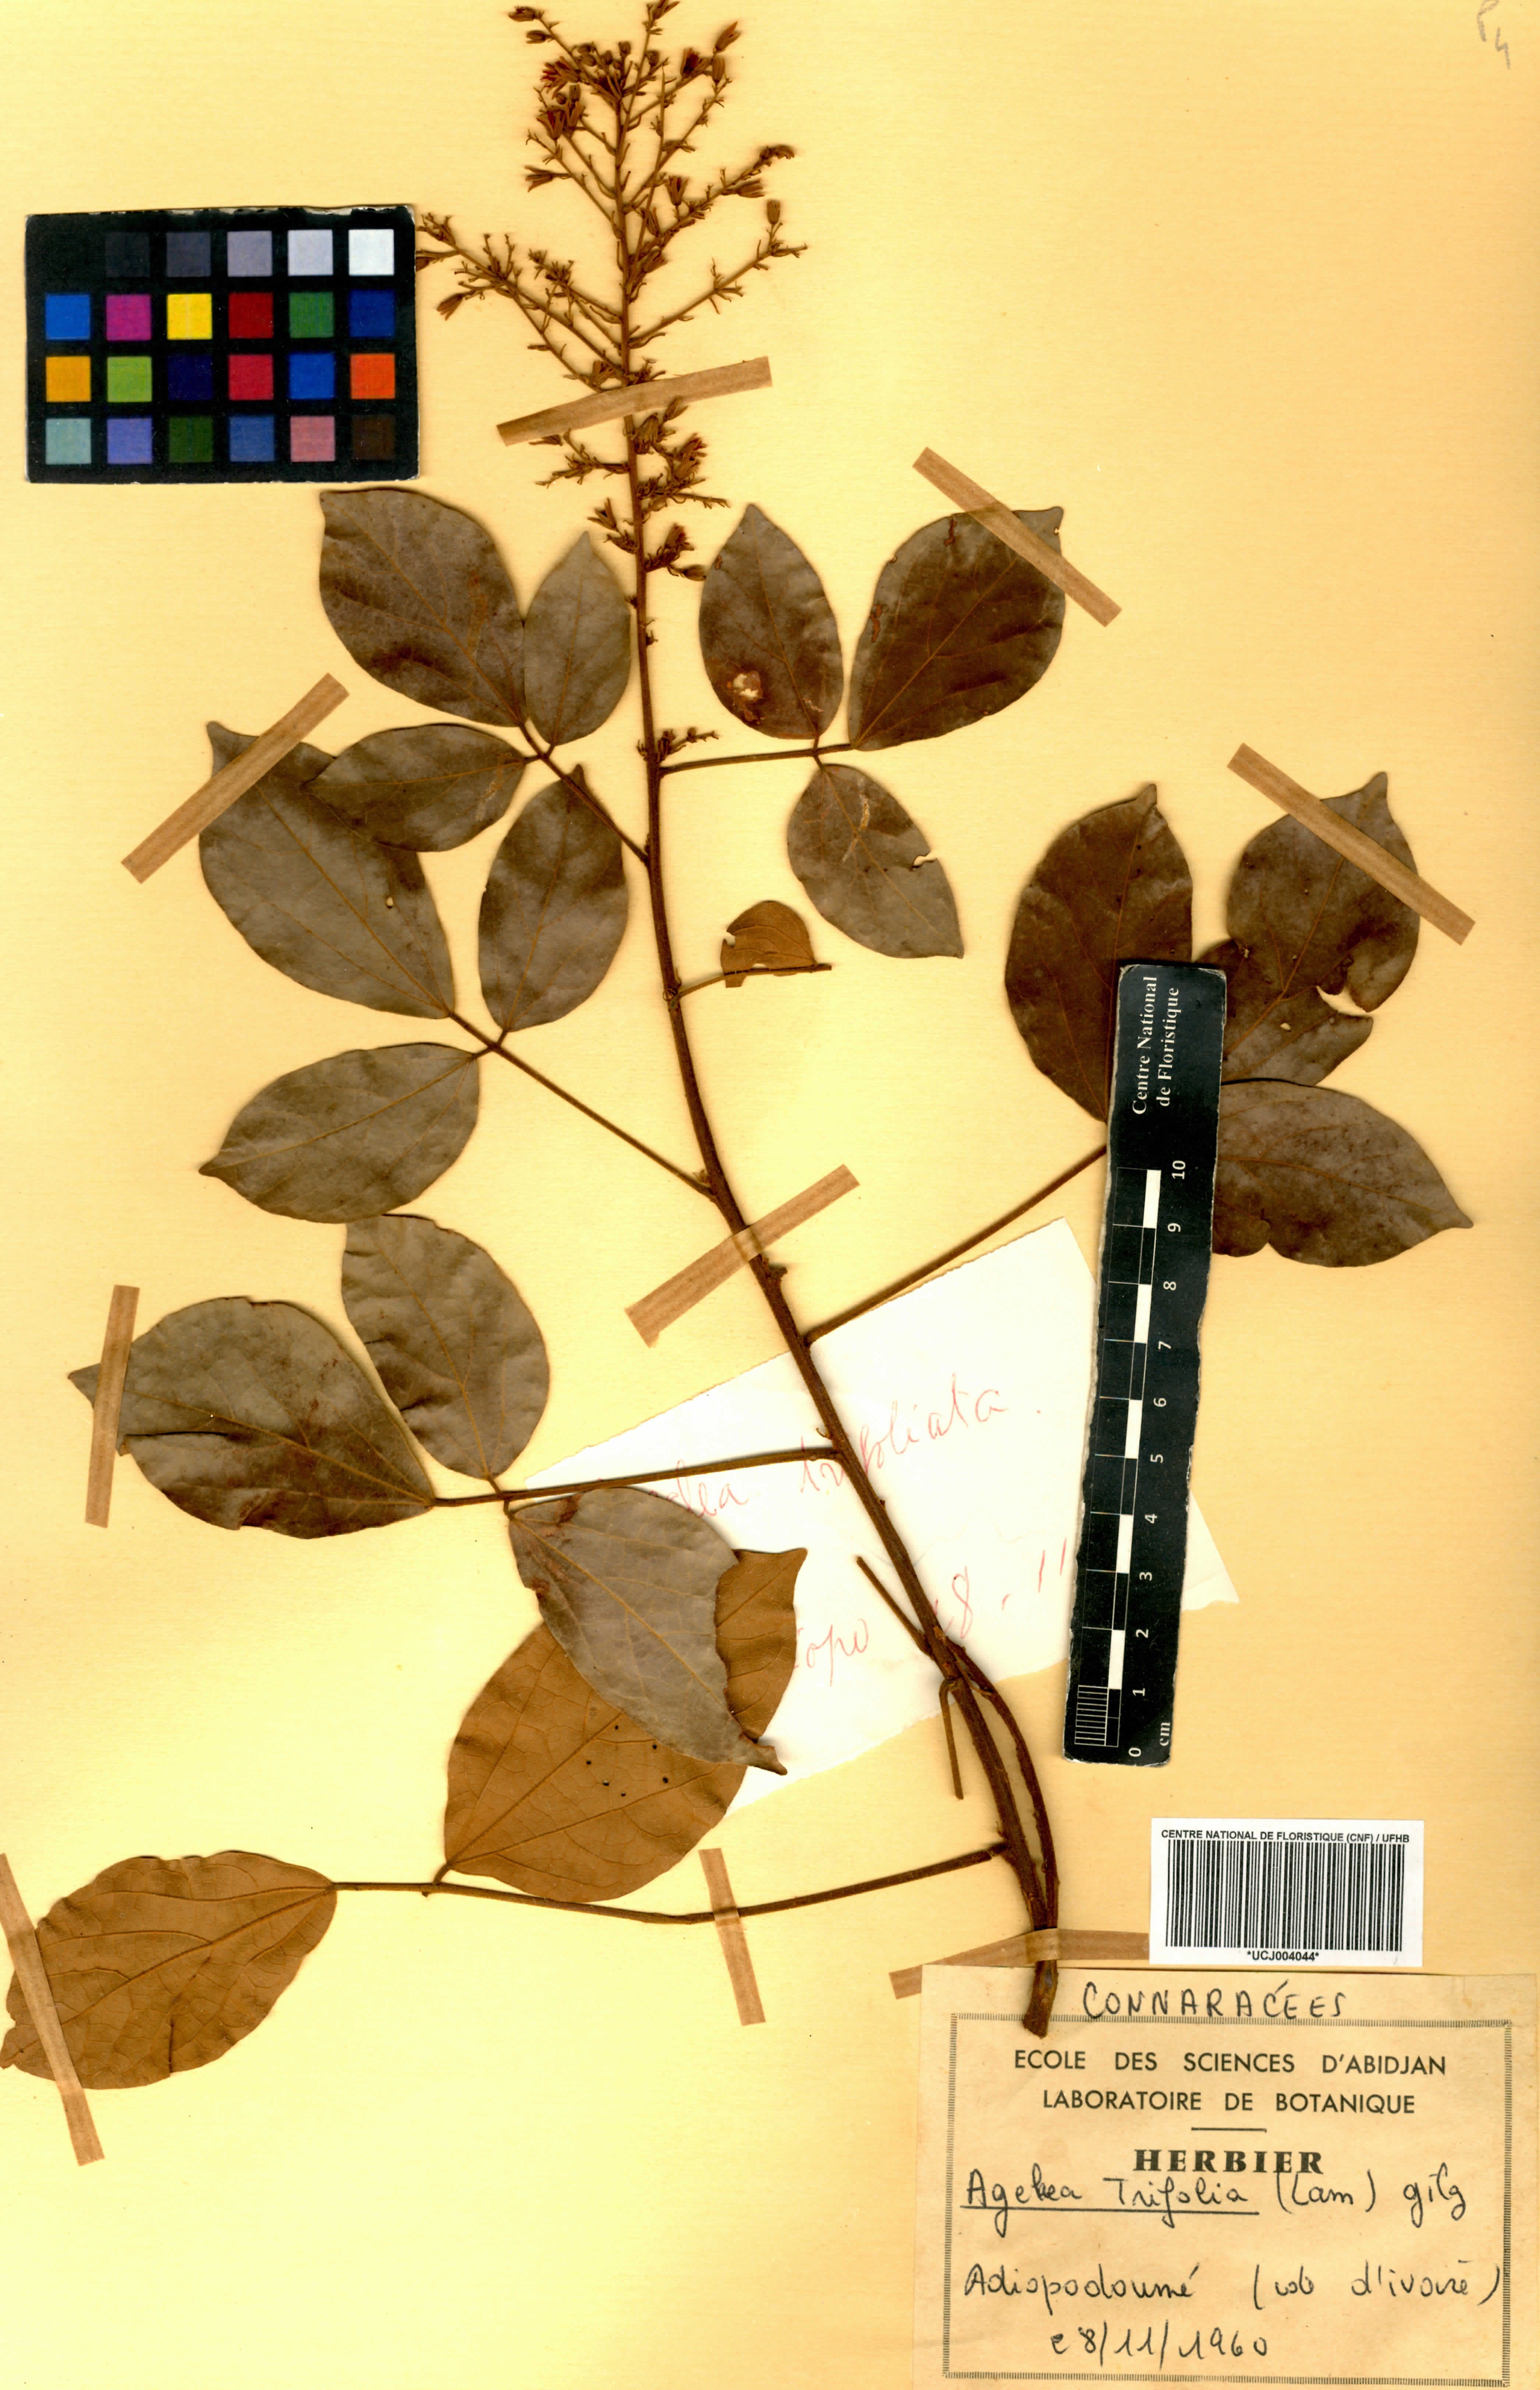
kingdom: Plantae
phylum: Tracheophyta
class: Magnoliopsida
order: Oxalidales
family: Connaraceae
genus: Agelaea
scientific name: Agelaea pentagyna
